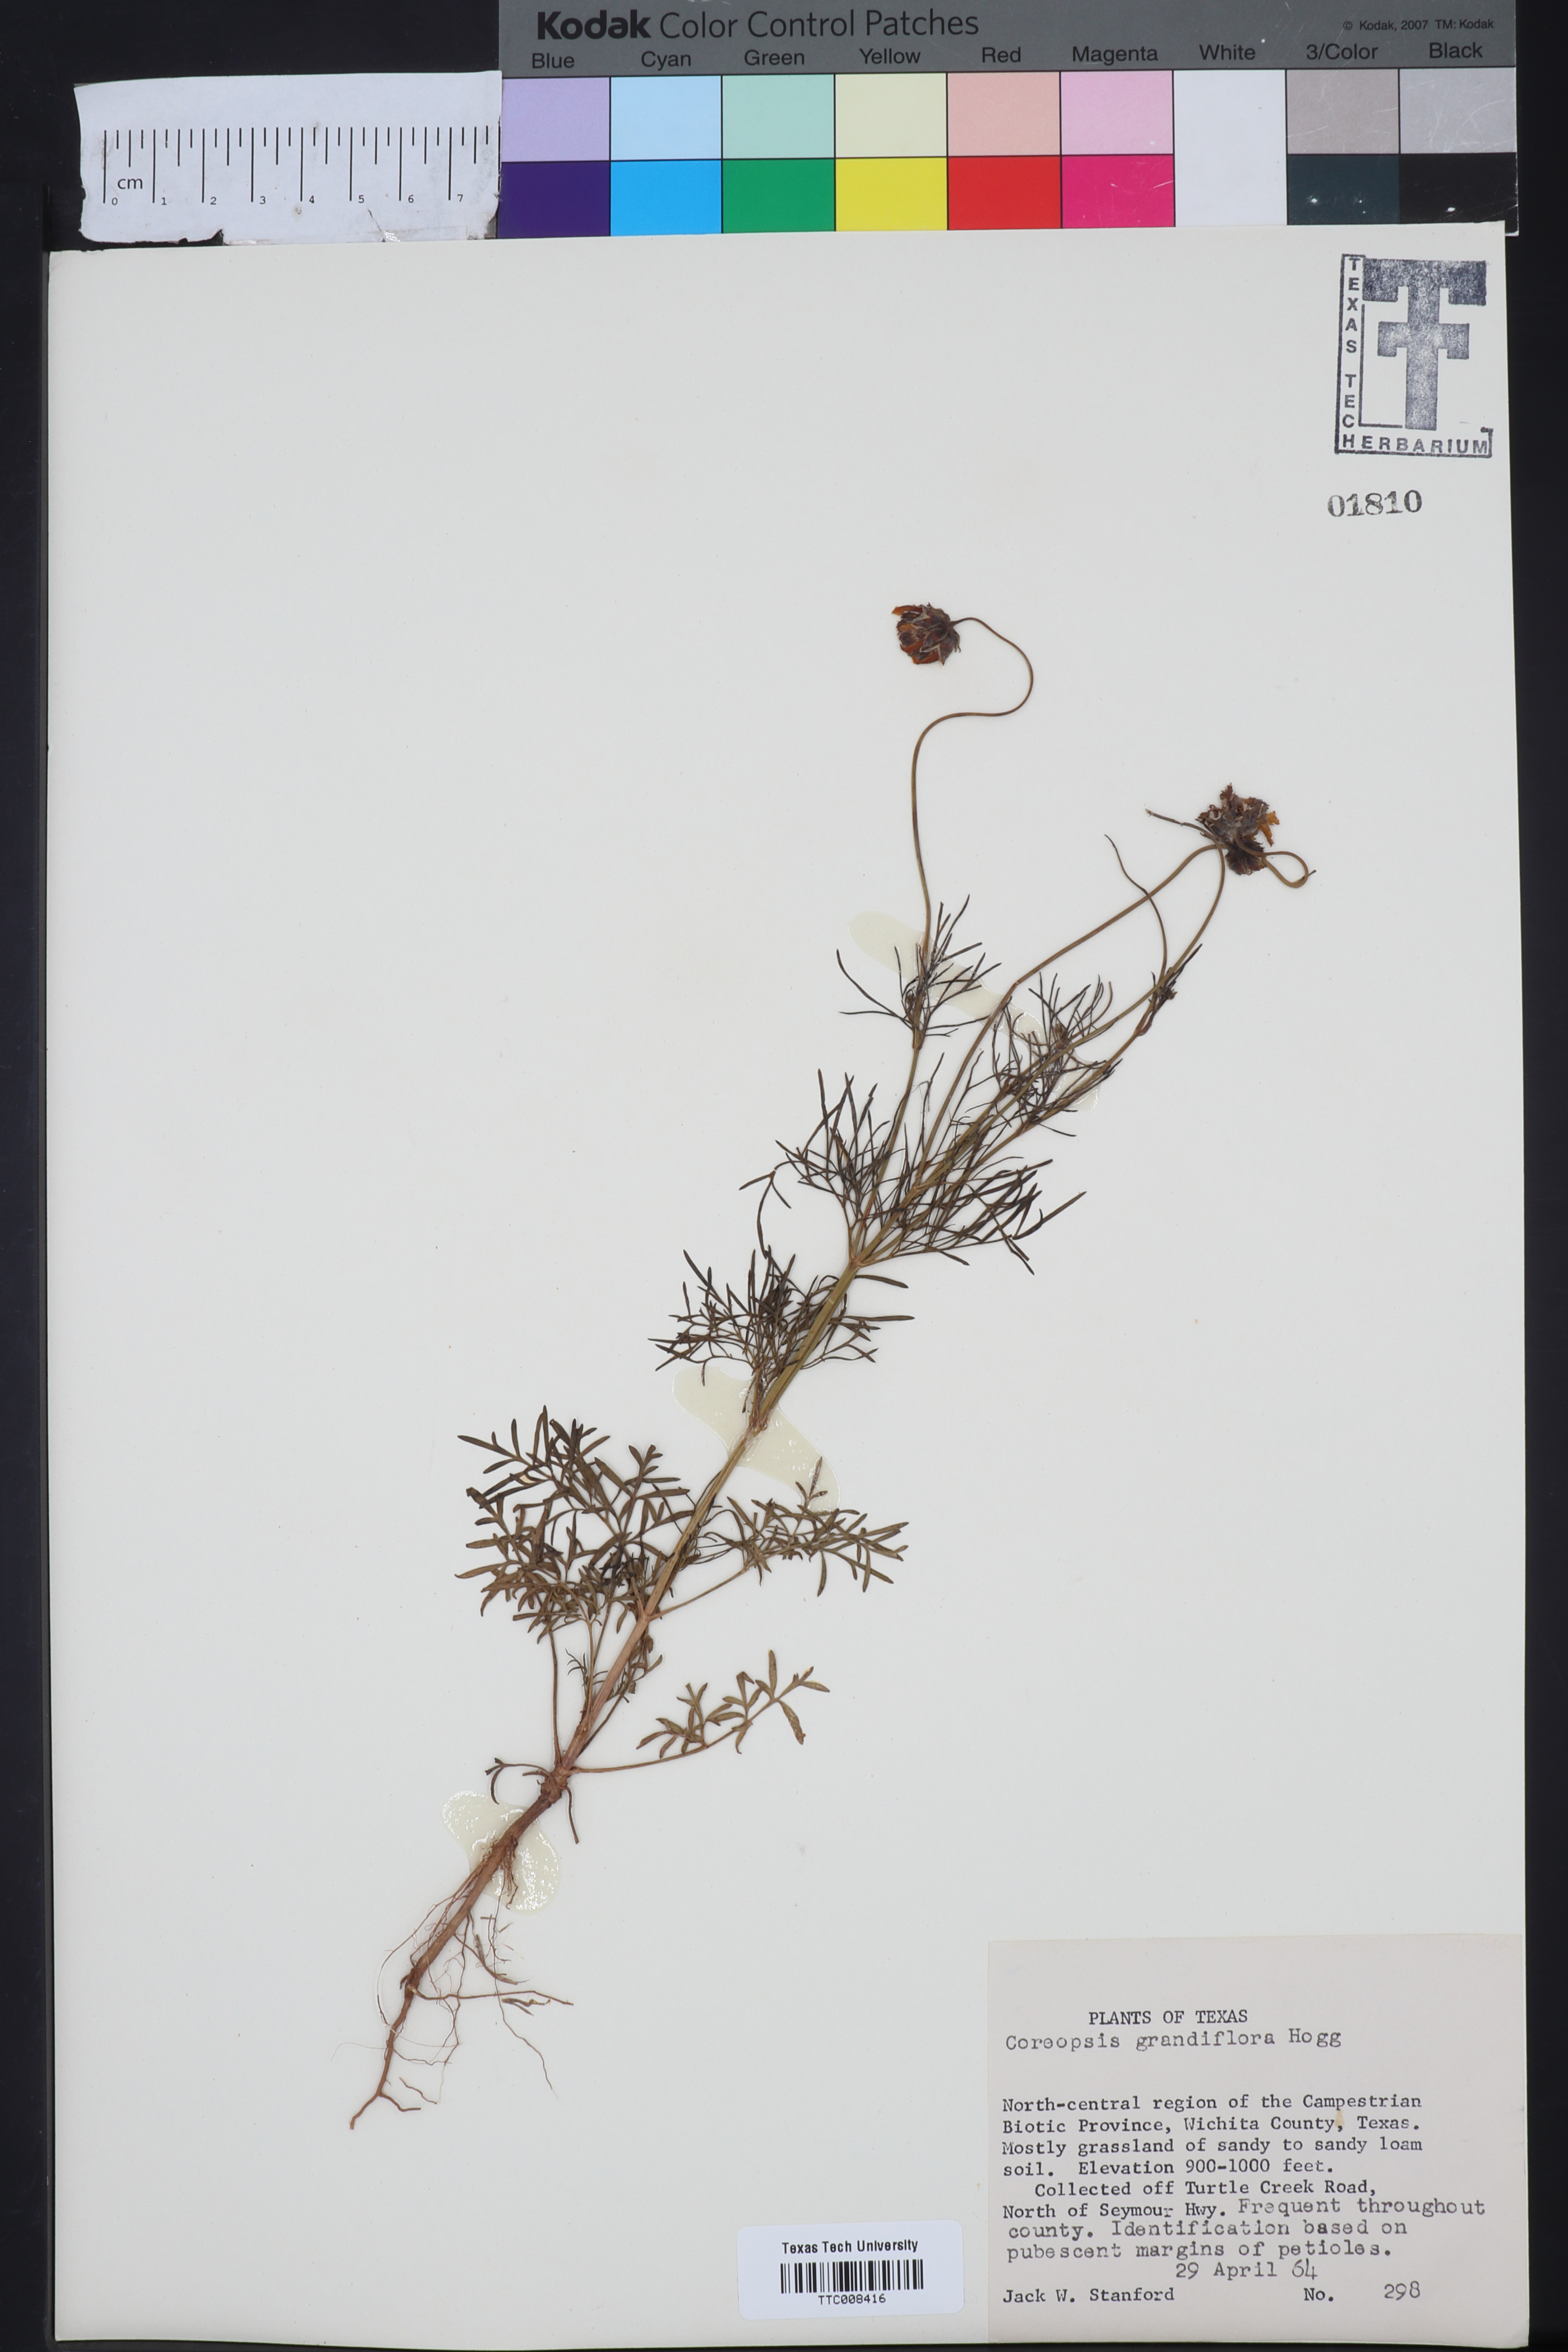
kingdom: Plantae
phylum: Tracheophyta
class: Magnoliopsida
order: Asterales
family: Asteraceae
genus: Coreopsis
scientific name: Coreopsis grandiflora
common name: Large-flowered tickseed
